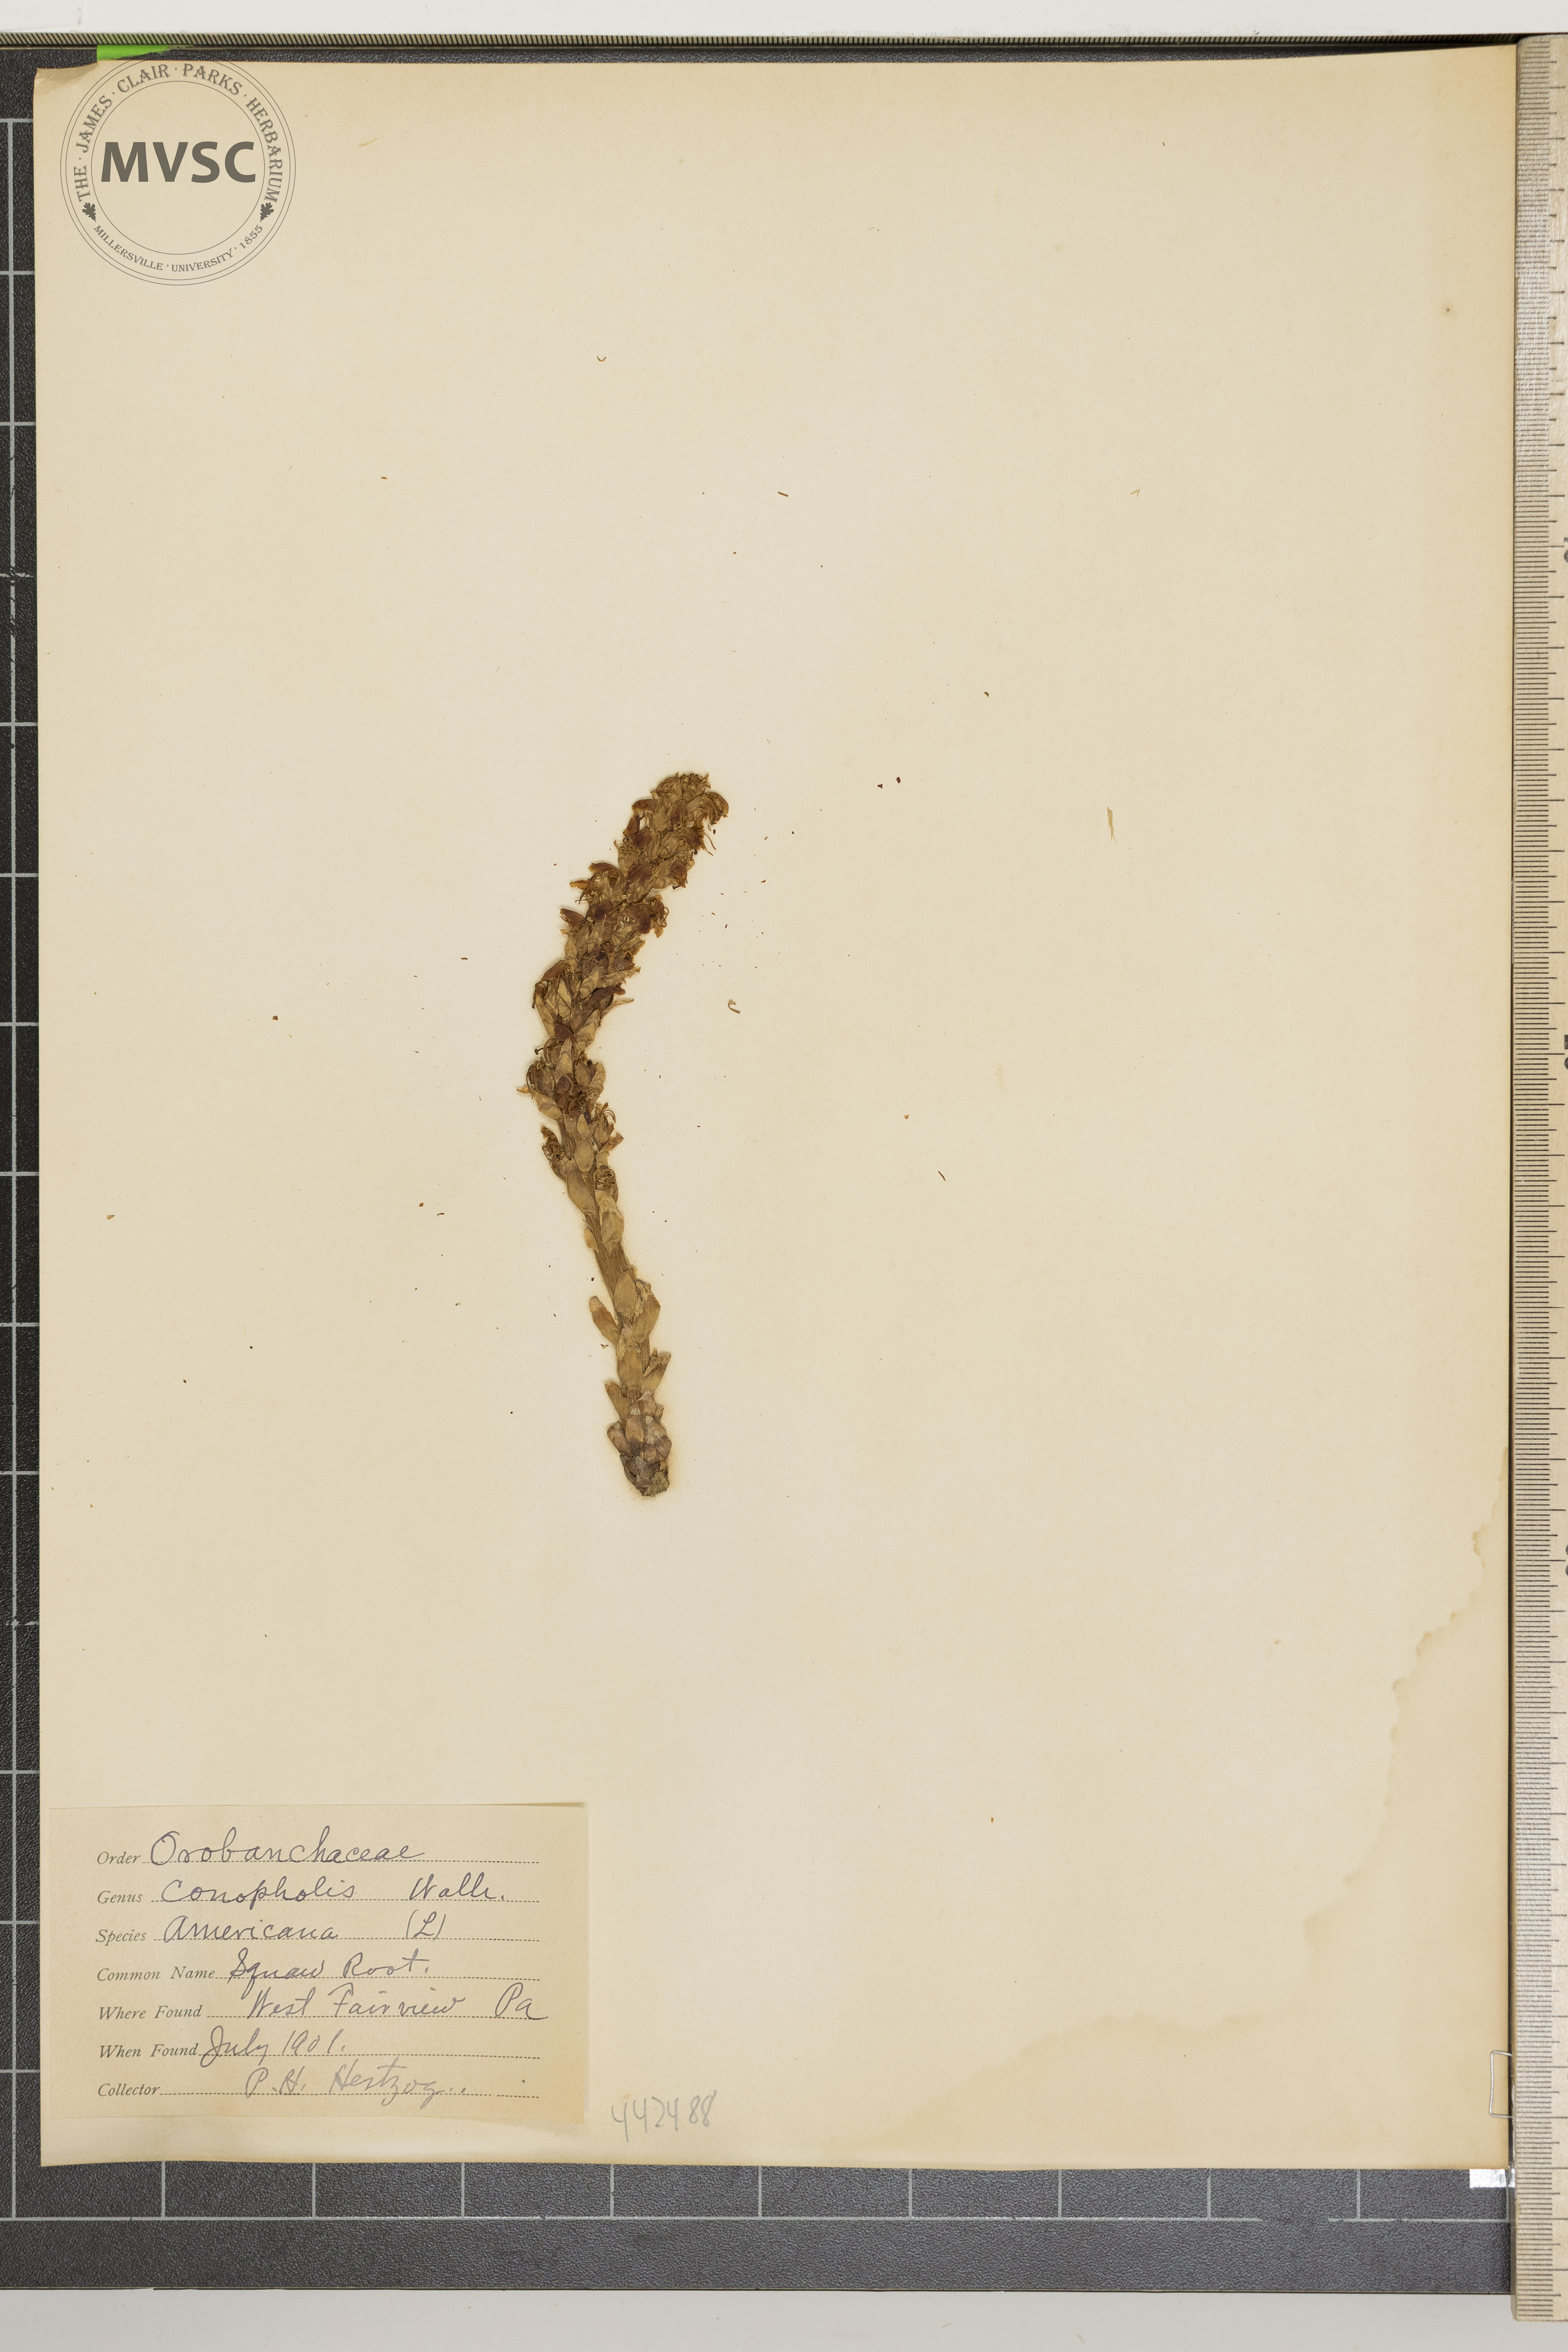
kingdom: Plantae
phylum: Tracheophyta
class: Magnoliopsida
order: Lamiales
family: Orobanchaceae
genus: Conopholis
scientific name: Conopholis americana
